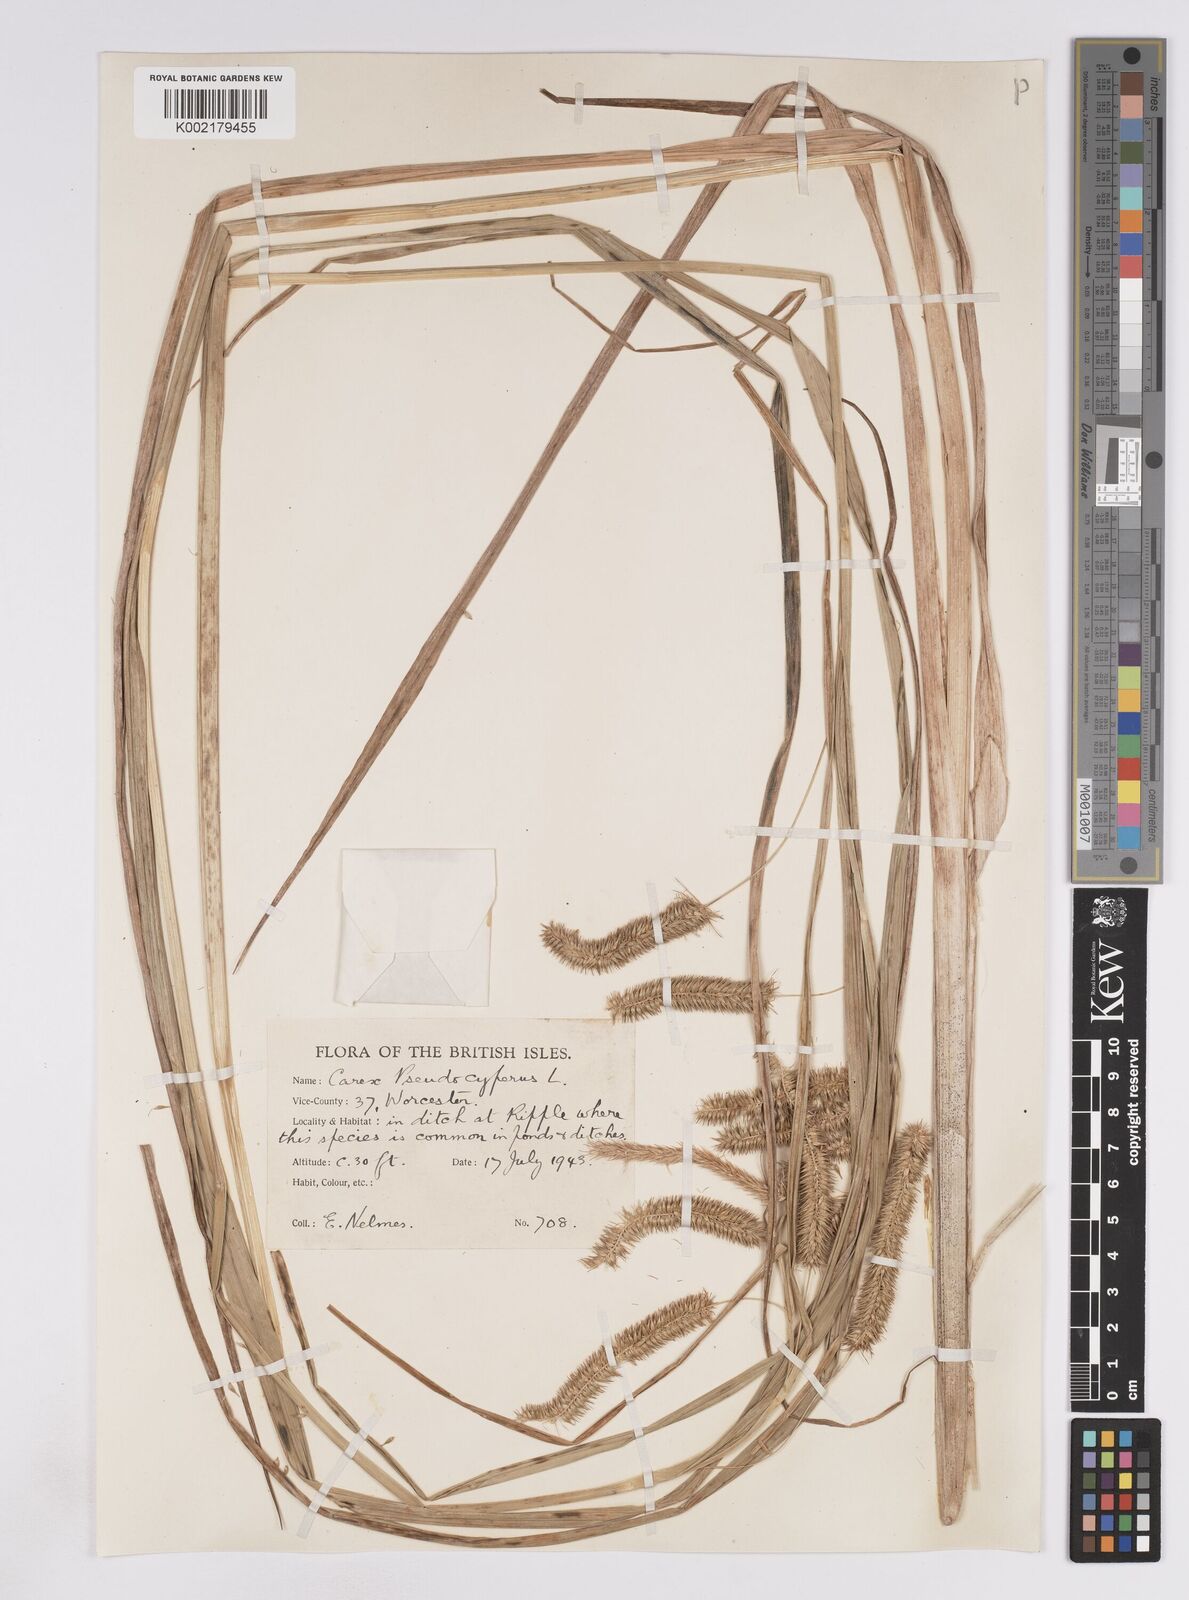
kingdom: Plantae
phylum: Tracheophyta
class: Liliopsida
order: Poales
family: Cyperaceae
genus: Carex
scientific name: Carex pseudocyperus
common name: Cyperus sedge
